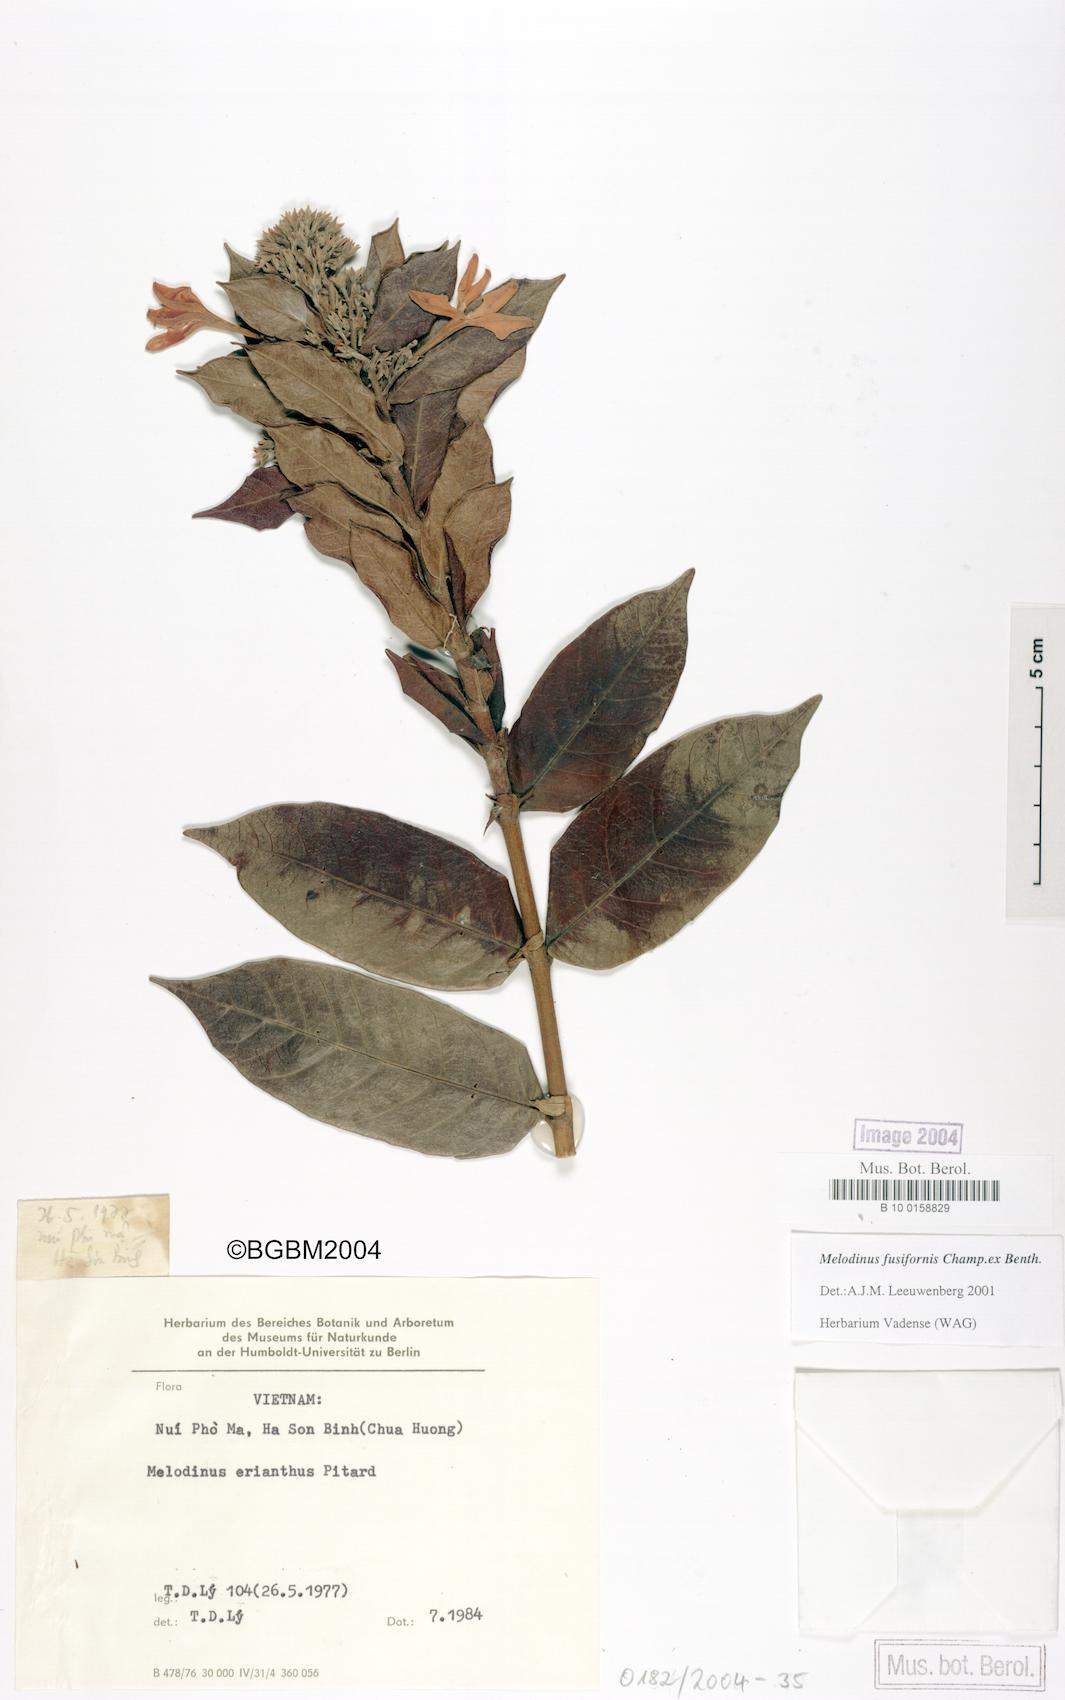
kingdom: Plantae
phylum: Tracheophyta
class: Magnoliopsida
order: Gentianales
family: Apocynaceae
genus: Melodinus
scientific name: Melodinus fusiformis
